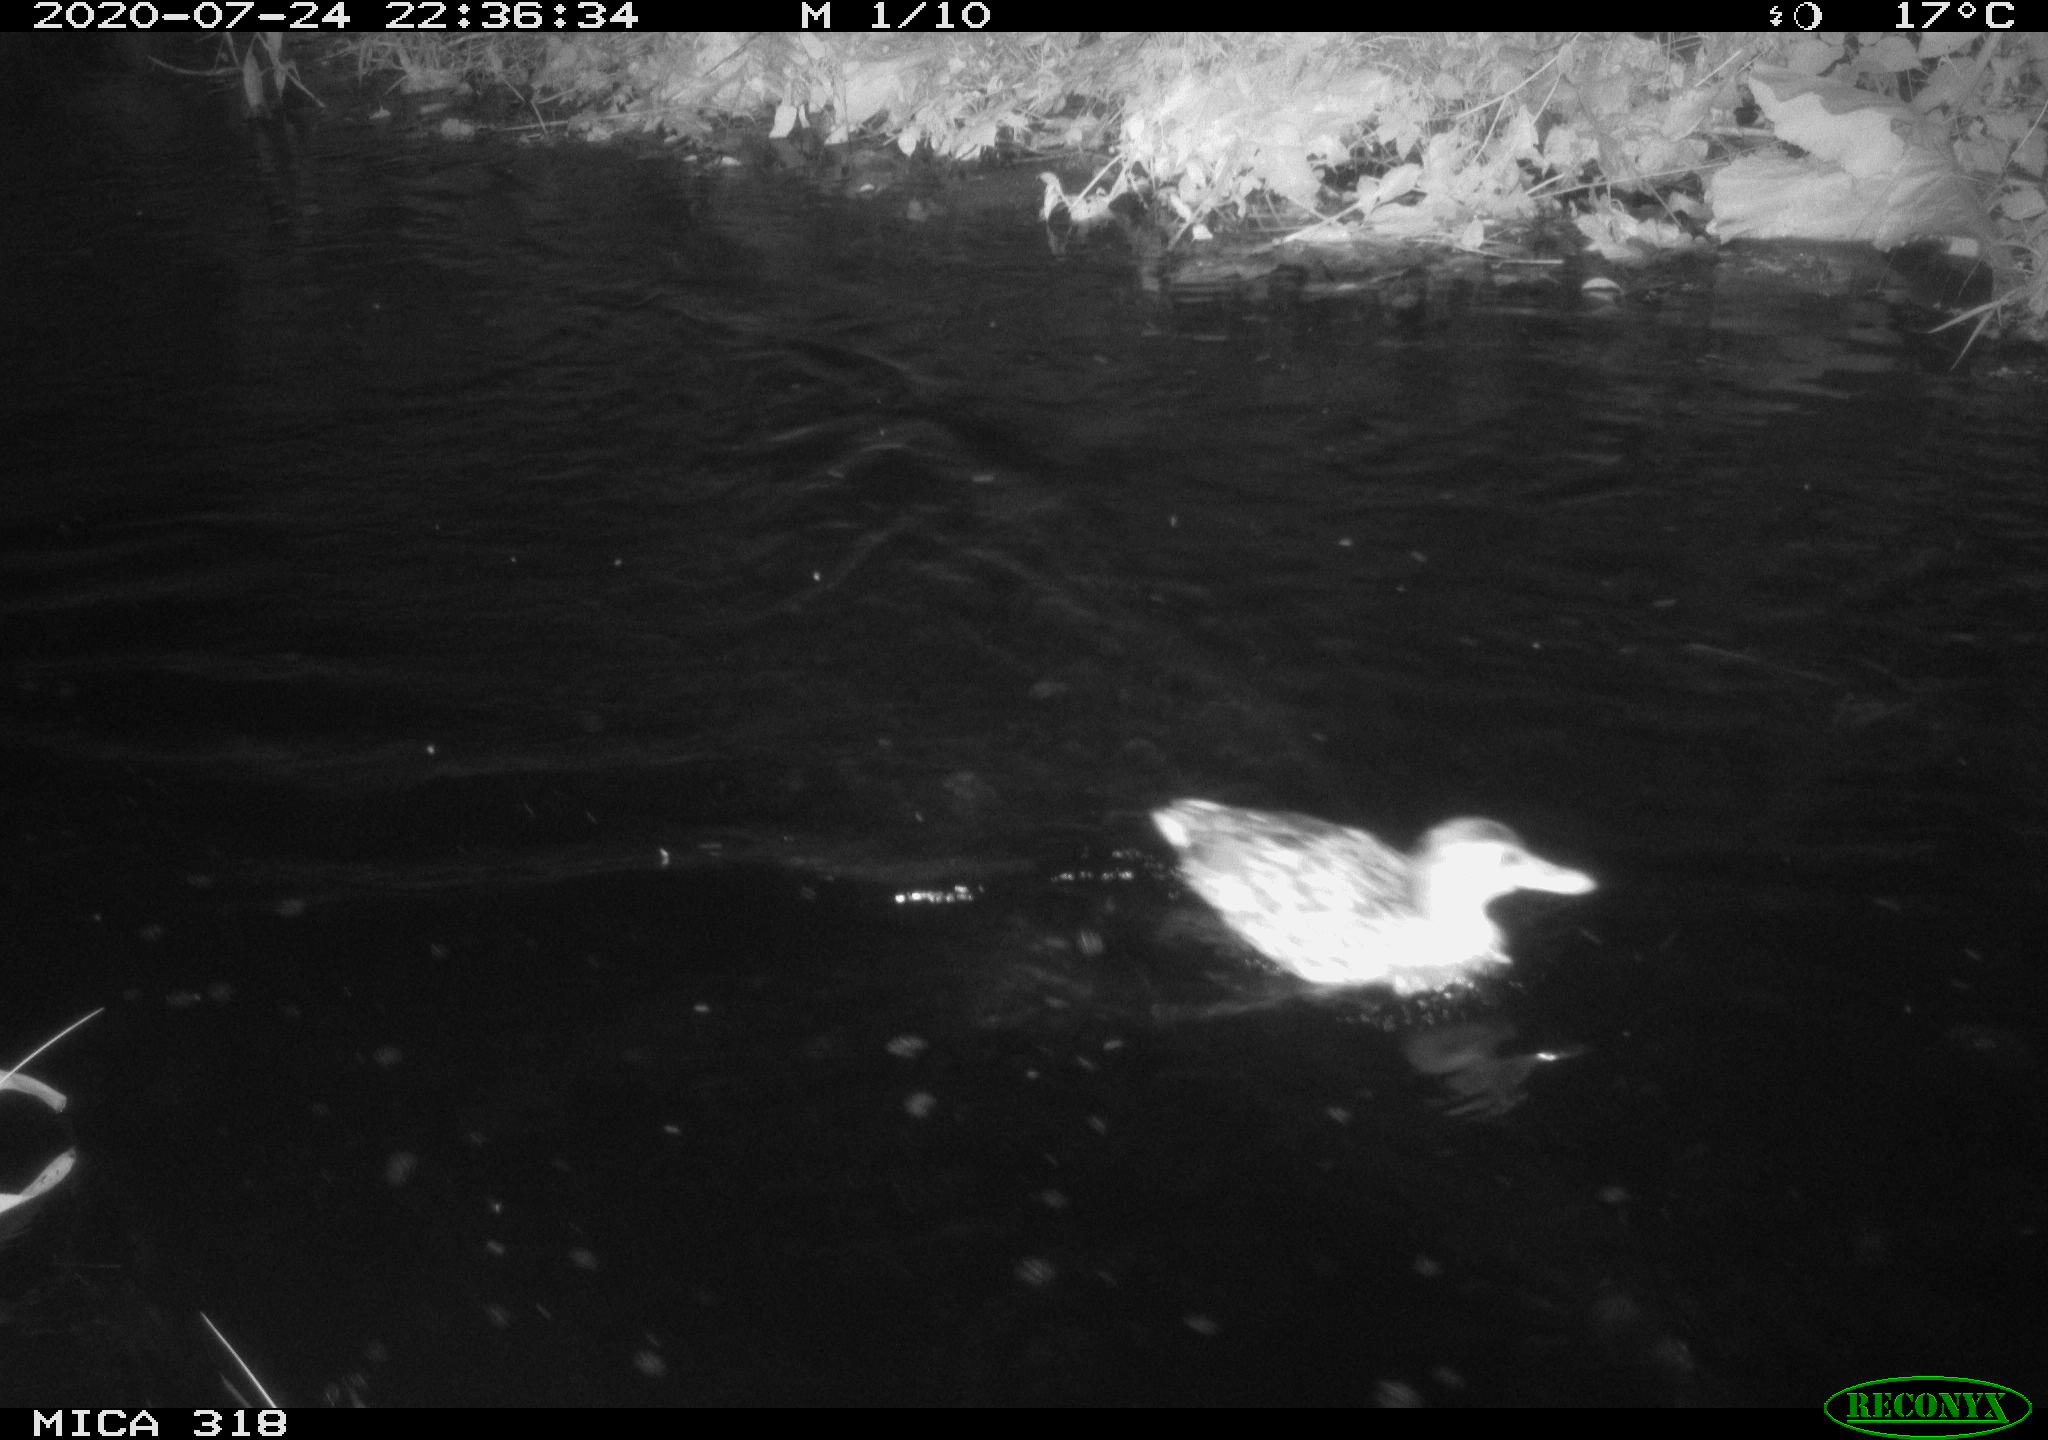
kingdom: Animalia
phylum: Chordata
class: Aves
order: Anseriformes
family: Anatidae
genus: Anas
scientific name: Anas platyrhynchos
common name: Mallard
